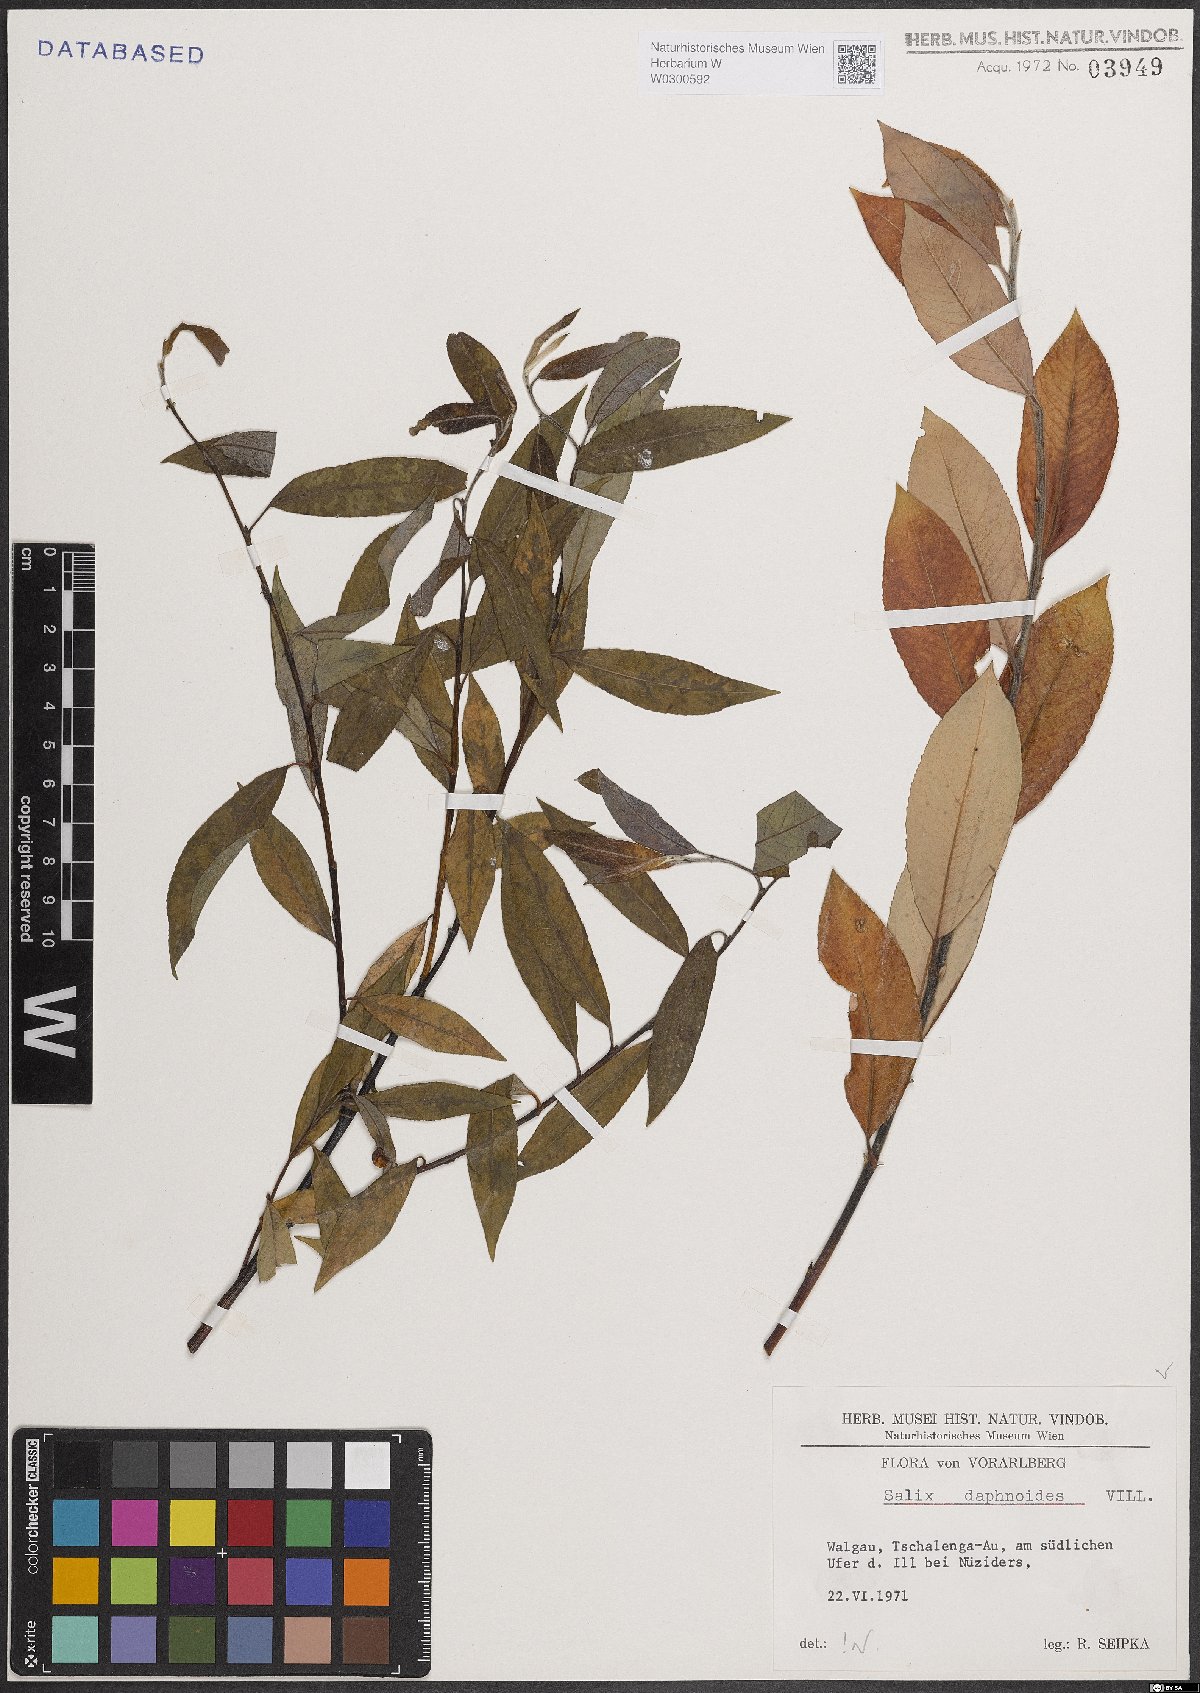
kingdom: Plantae
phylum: Tracheophyta
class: Magnoliopsida
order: Malpighiales
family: Salicaceae
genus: Salix
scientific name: Salix daphnoides
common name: European violet-willow
